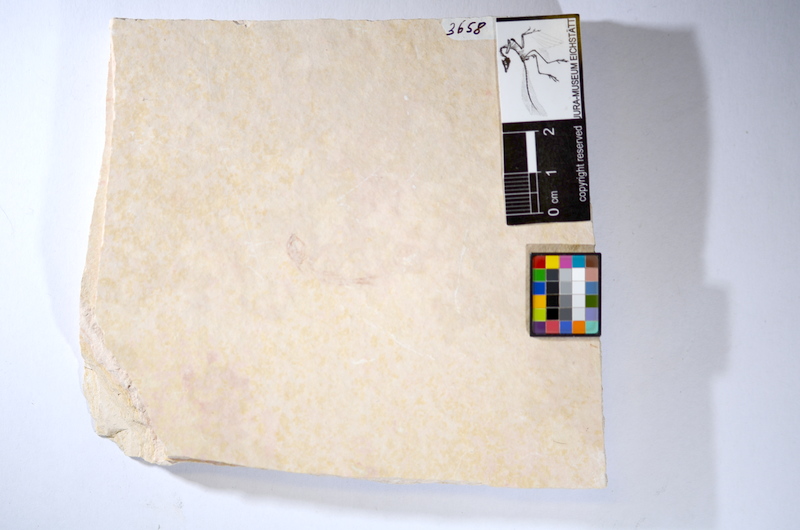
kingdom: Animalia
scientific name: Animalia
